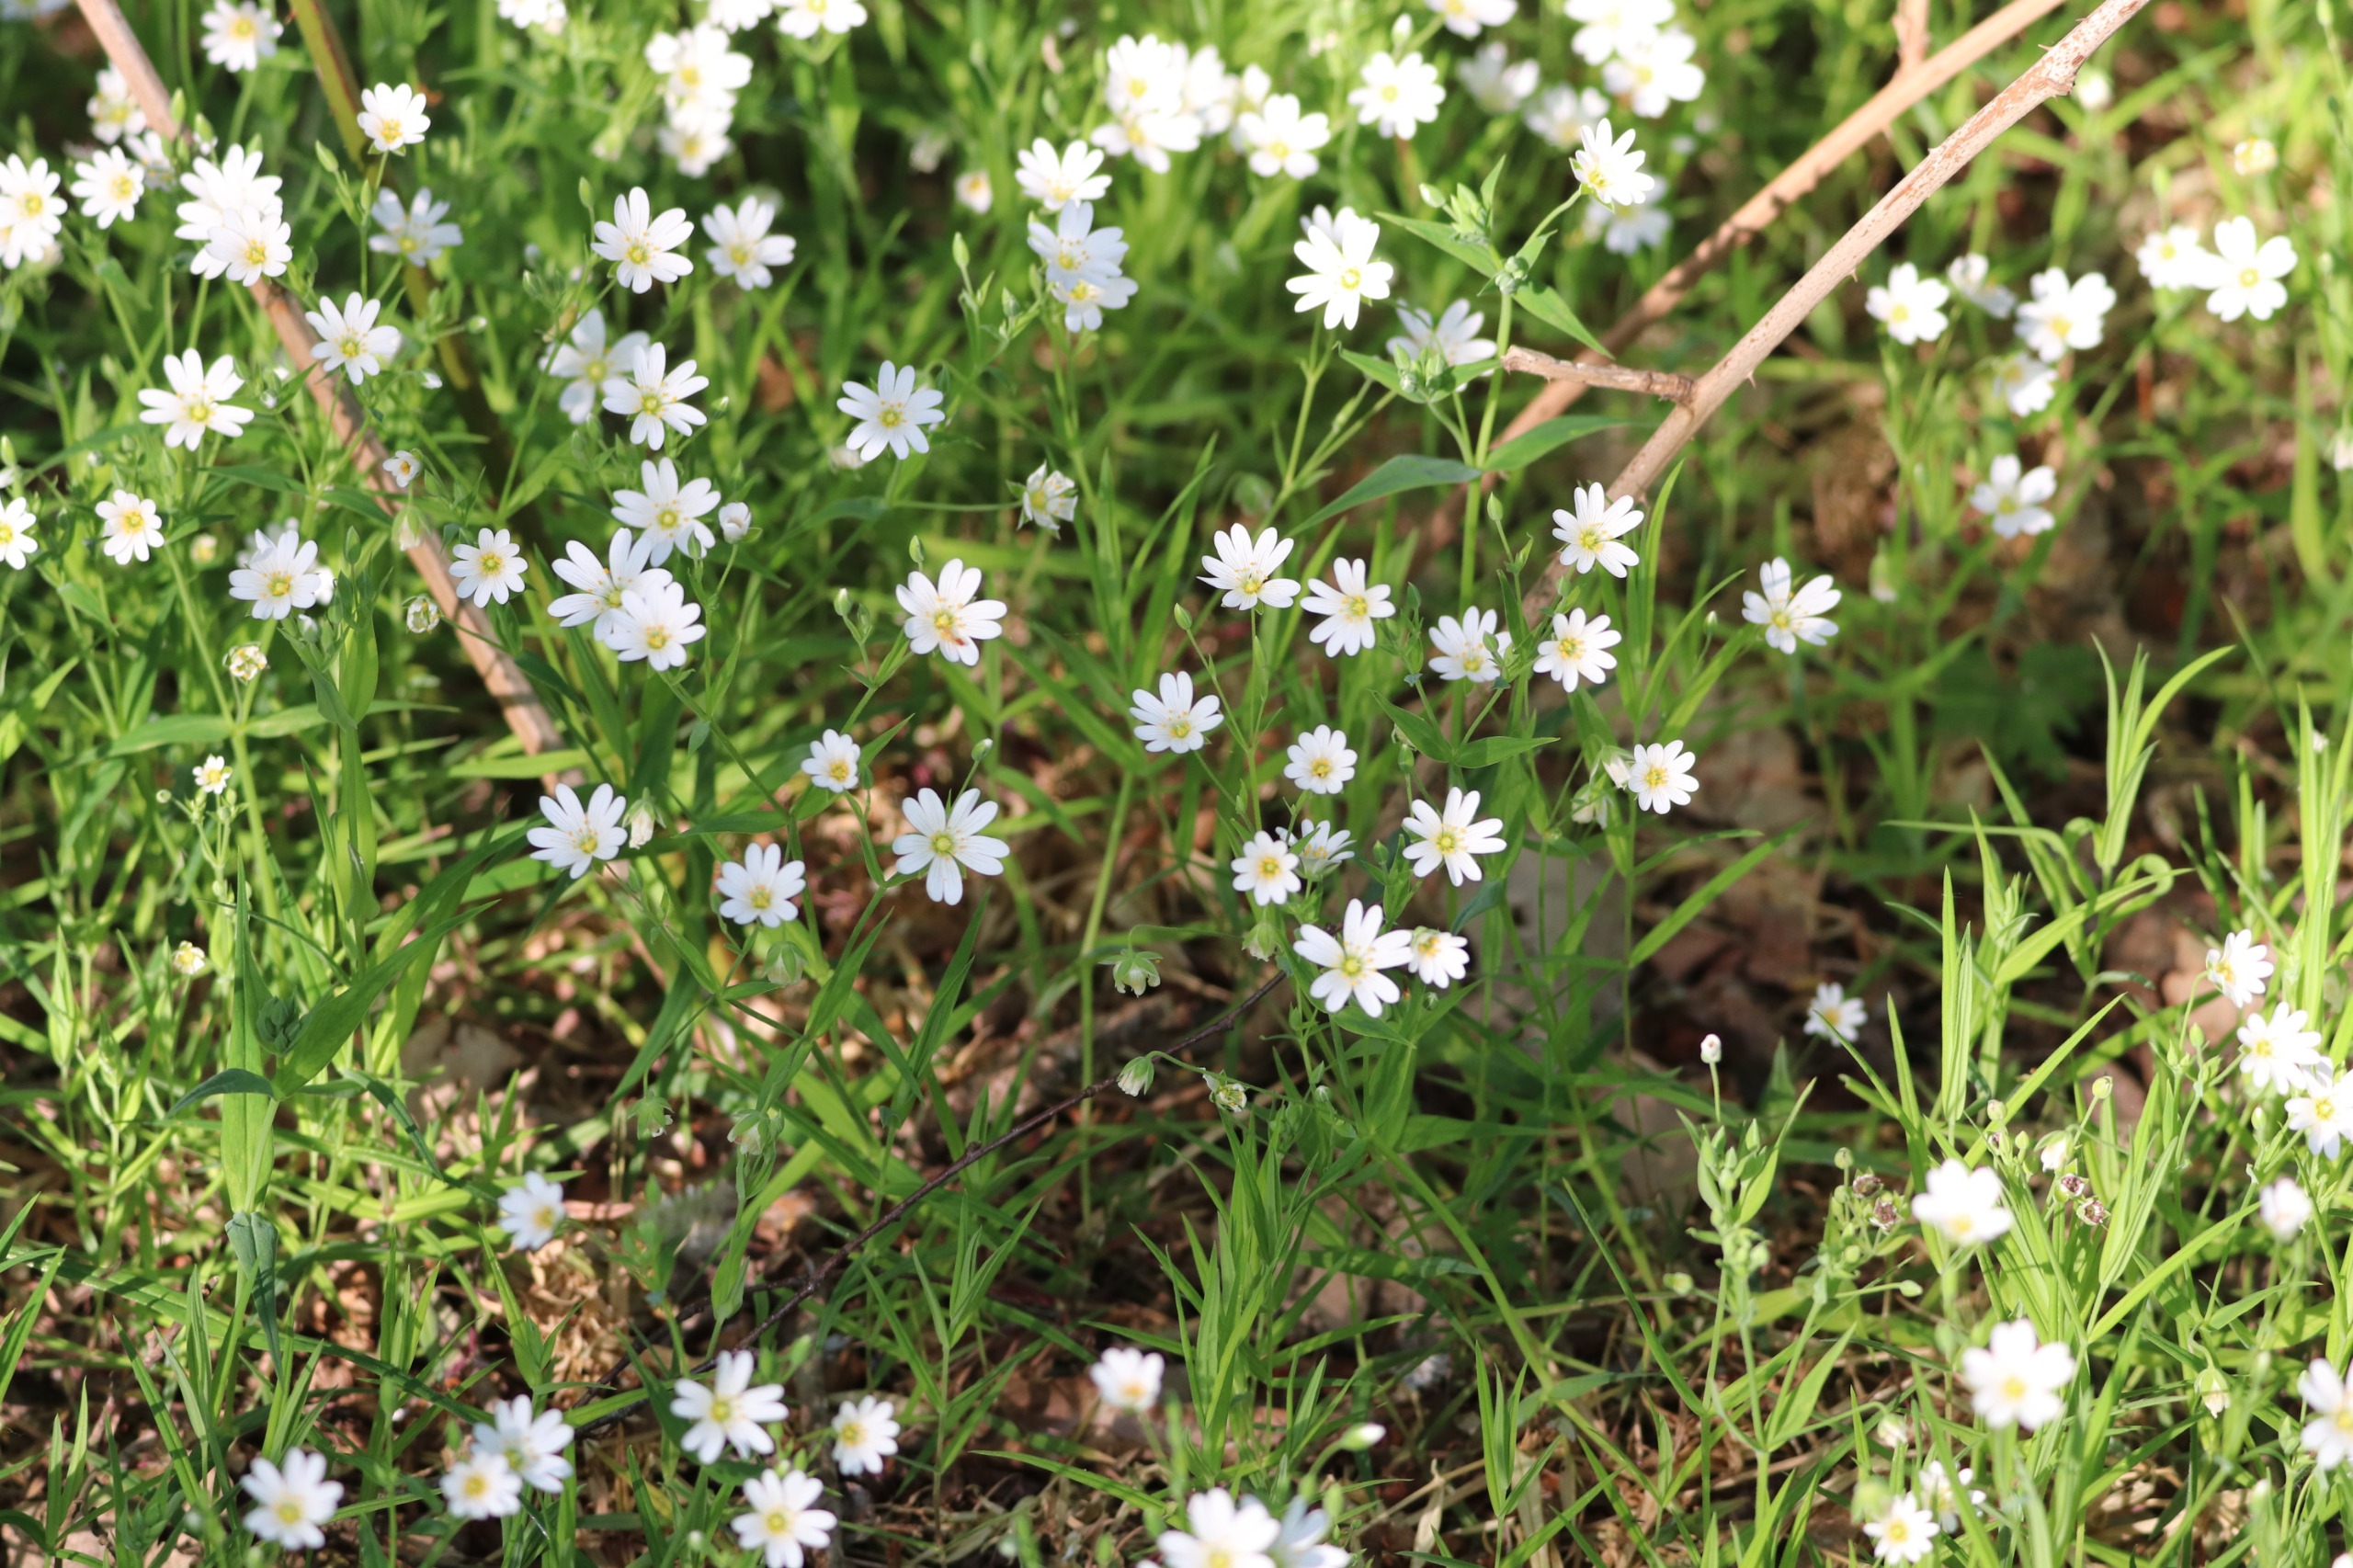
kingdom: Plantae
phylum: Tracheophyta
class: Magnoliopsida
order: Caryophyllales
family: Caryophyllaceae
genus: Rabelera
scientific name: Rabelera holostea
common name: Stor fladstjerne
